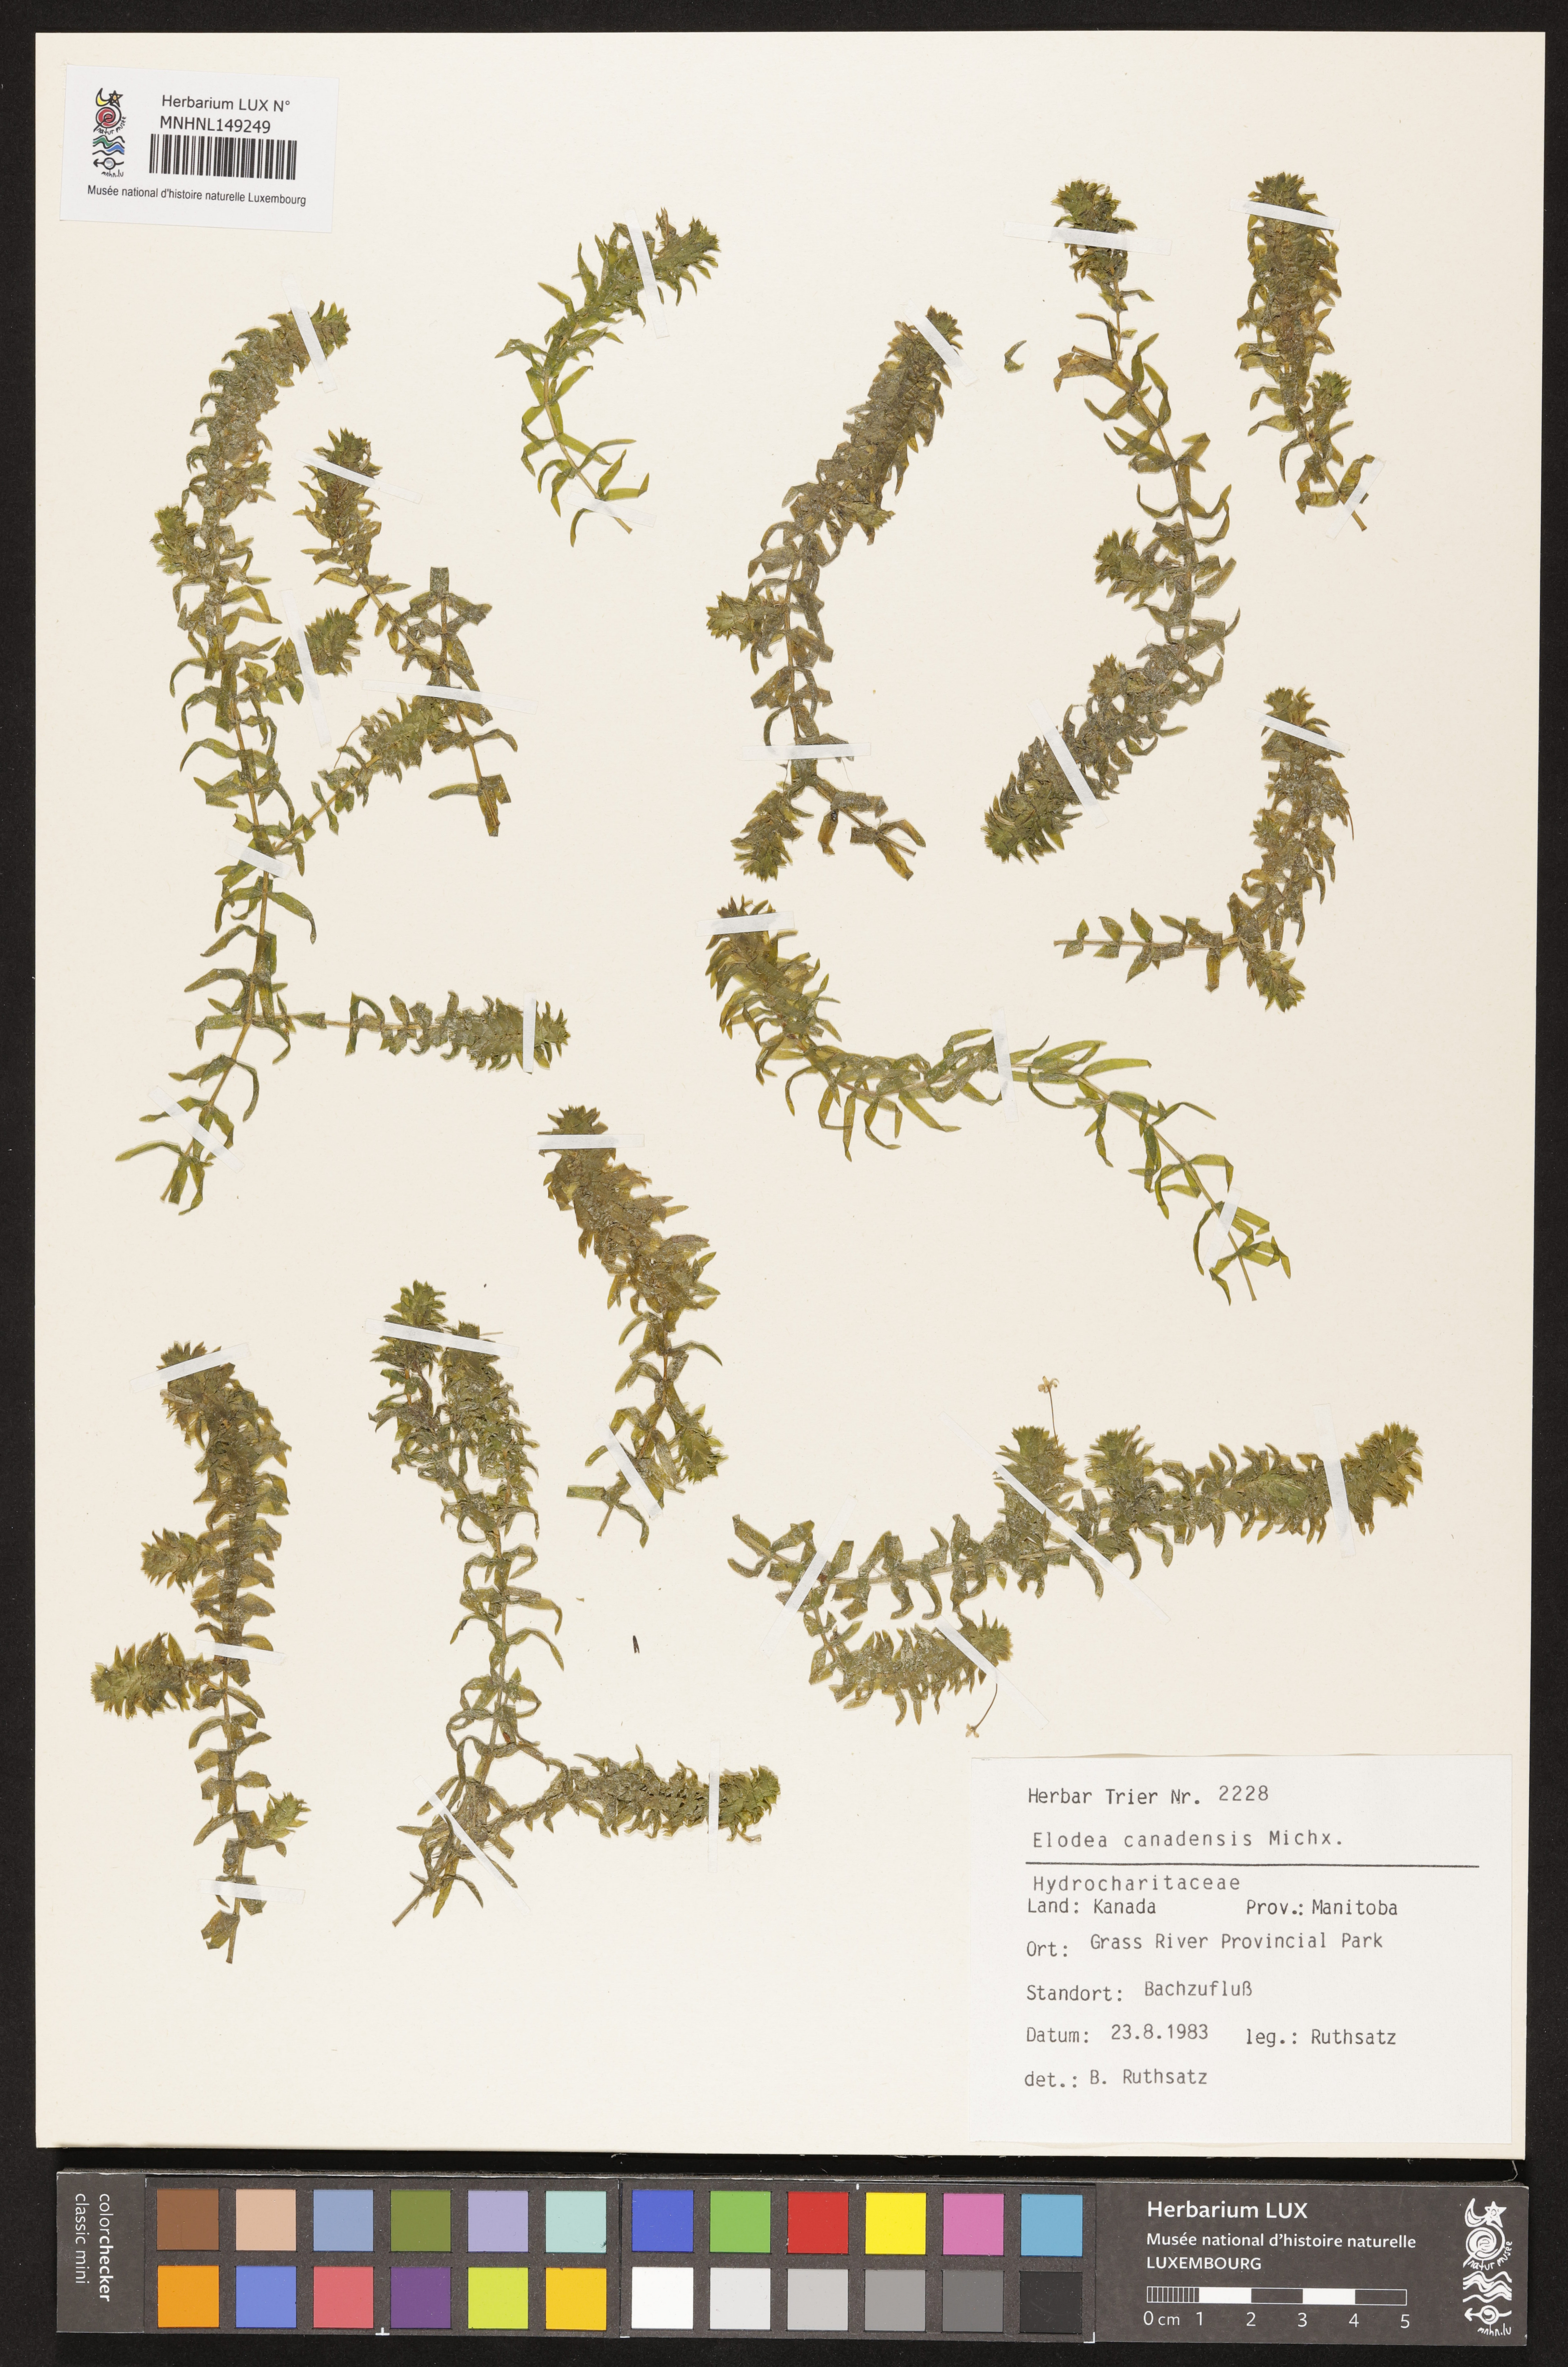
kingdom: Plantae
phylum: Tracheophyta
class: Liliopsida
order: Alismatales
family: Hydrocharitaceae
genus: Elodea
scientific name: Elodea canadensis
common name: Canadian waterweed
